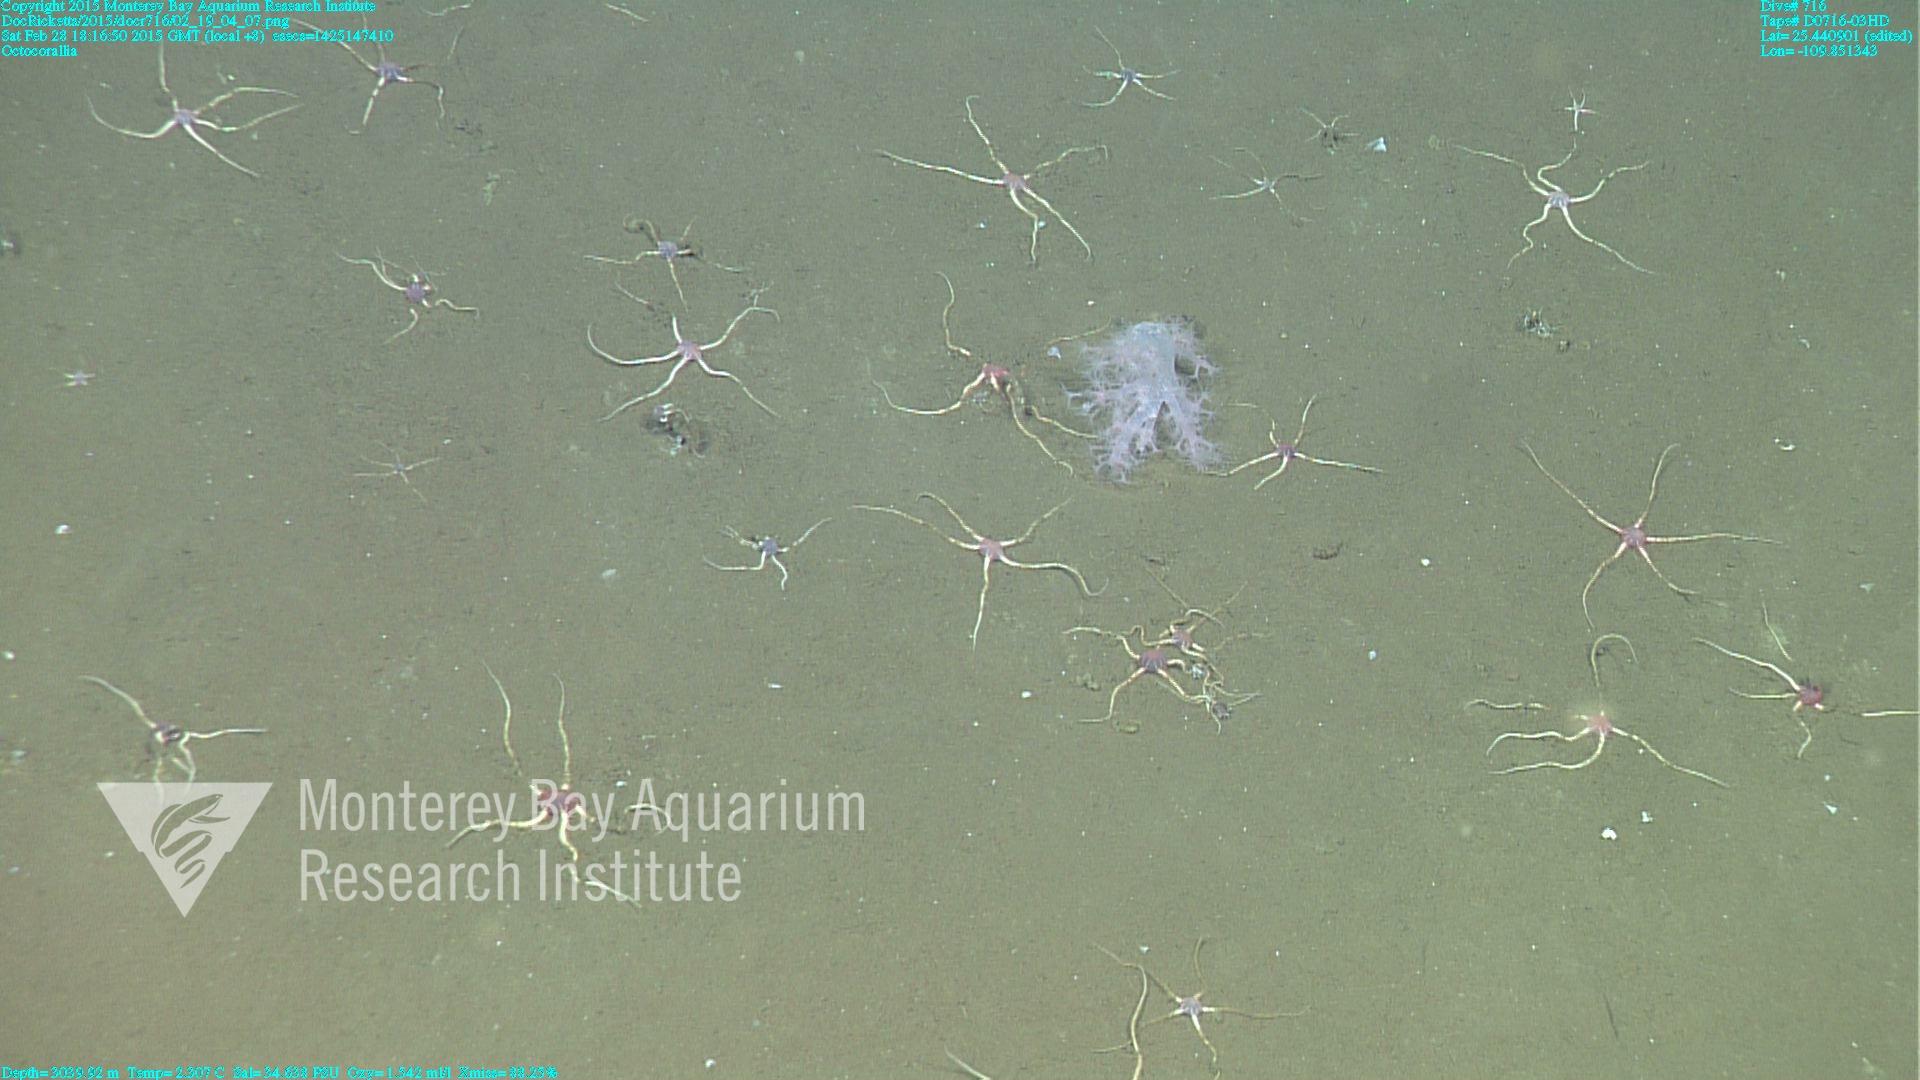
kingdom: Animalia
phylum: Cnidaria
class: Anthozoa
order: Malacalcyonacea
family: Alcyoniidae
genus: Gersemia
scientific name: Gersemia juliepackardae
